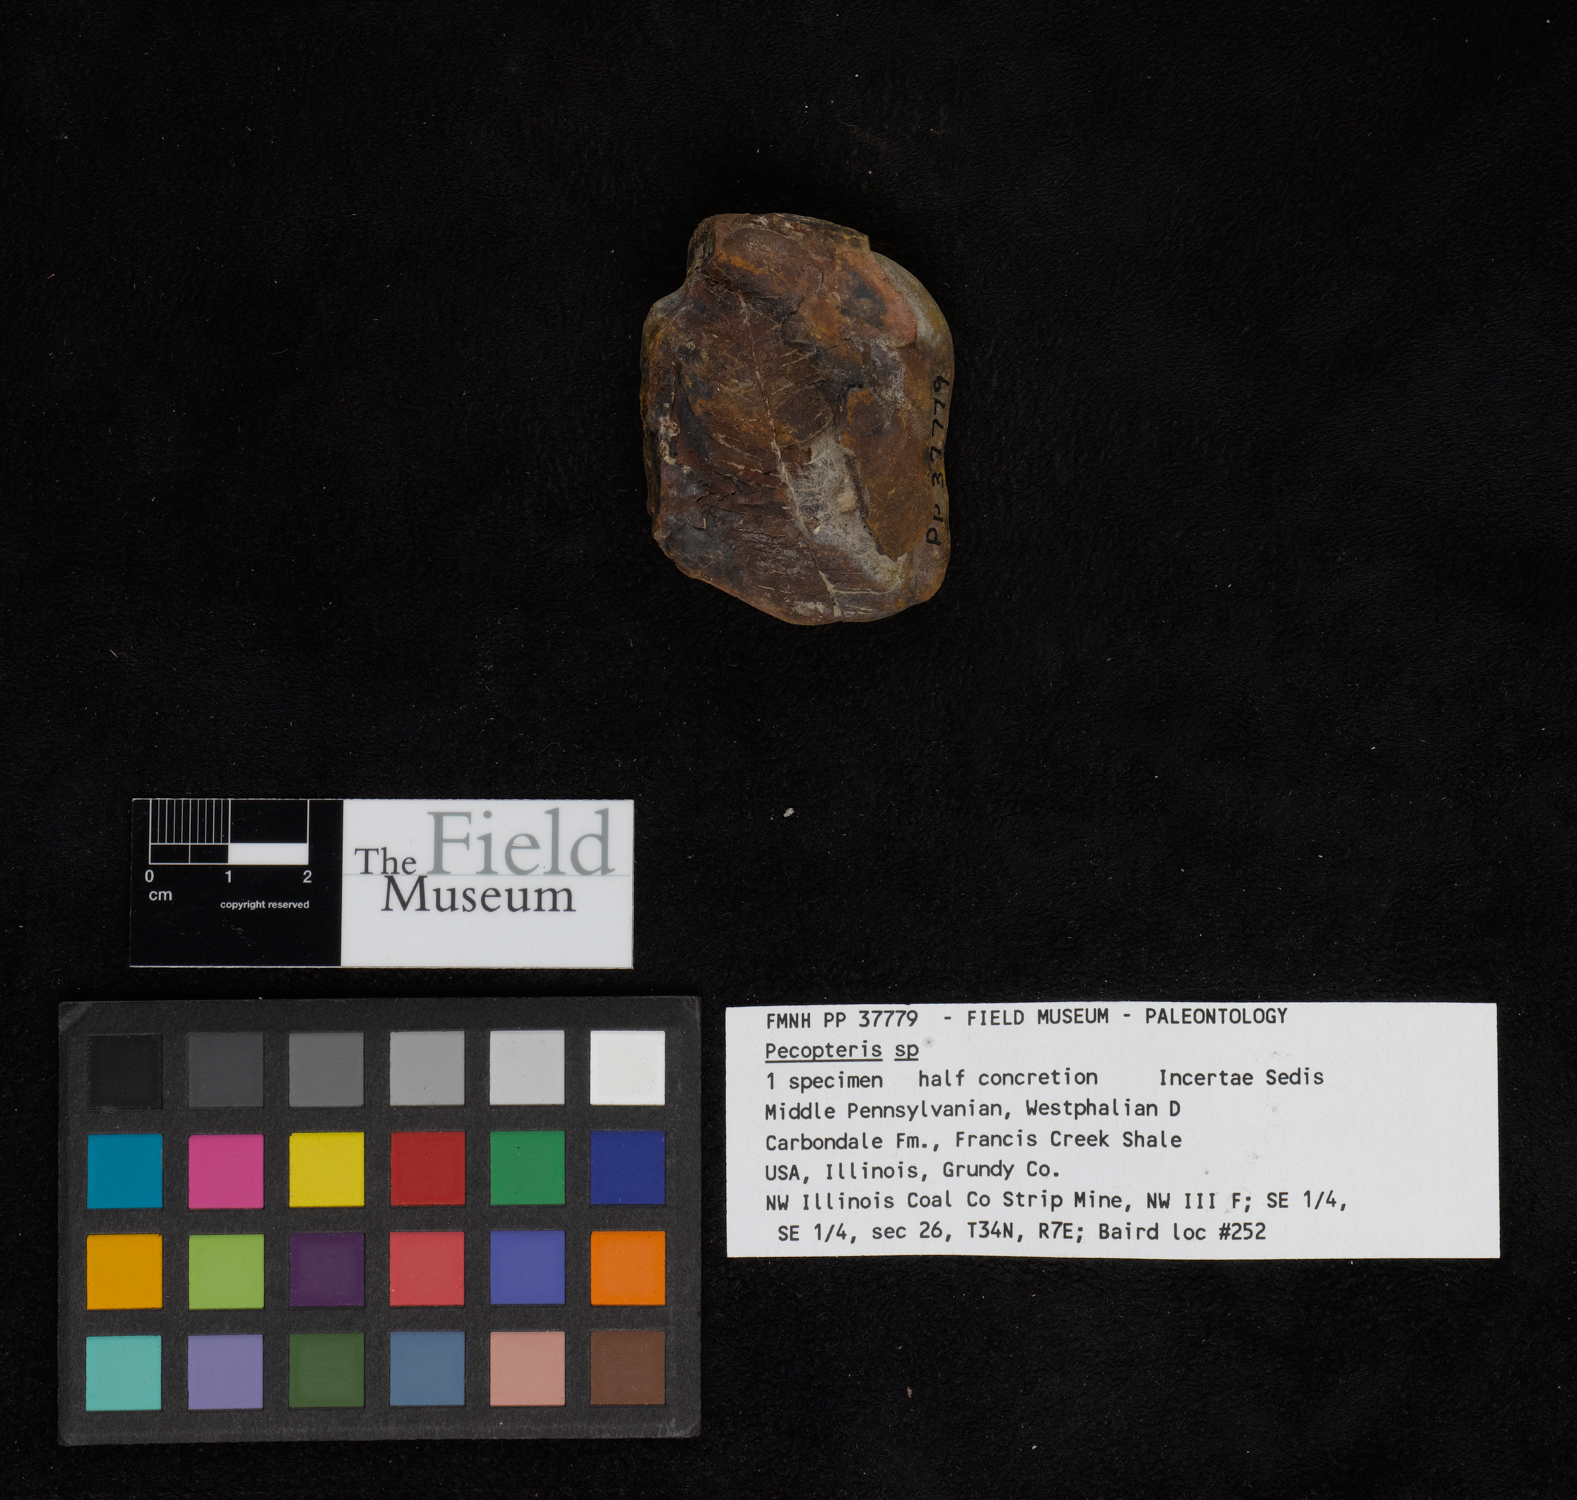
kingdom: Plantae
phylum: Tracheophyta
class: Polypodiopsida
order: Marattiales
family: Asterothecaceae
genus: Pecopteris
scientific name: Pecopteris
